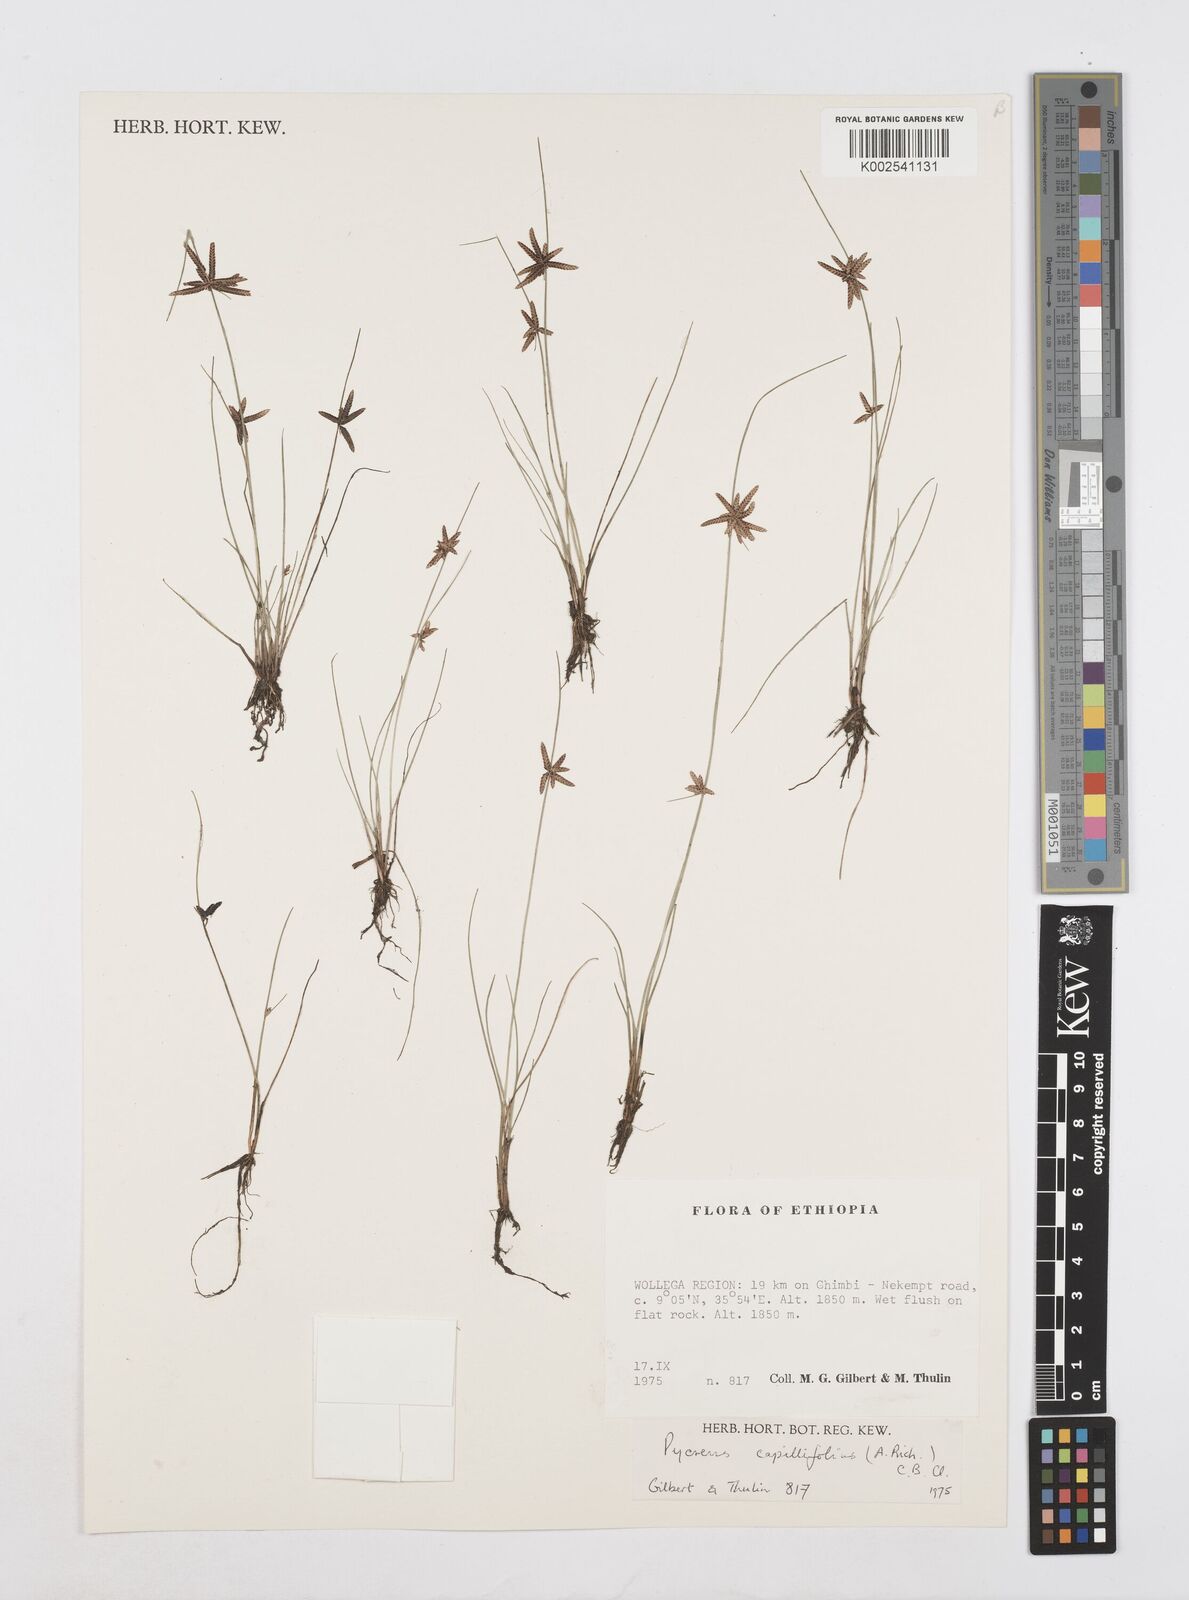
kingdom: Plantae
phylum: Tracheophyta
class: Liliopsida
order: Poales
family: Cyperaceae
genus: Cyperus
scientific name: Cyperus capillifolius
